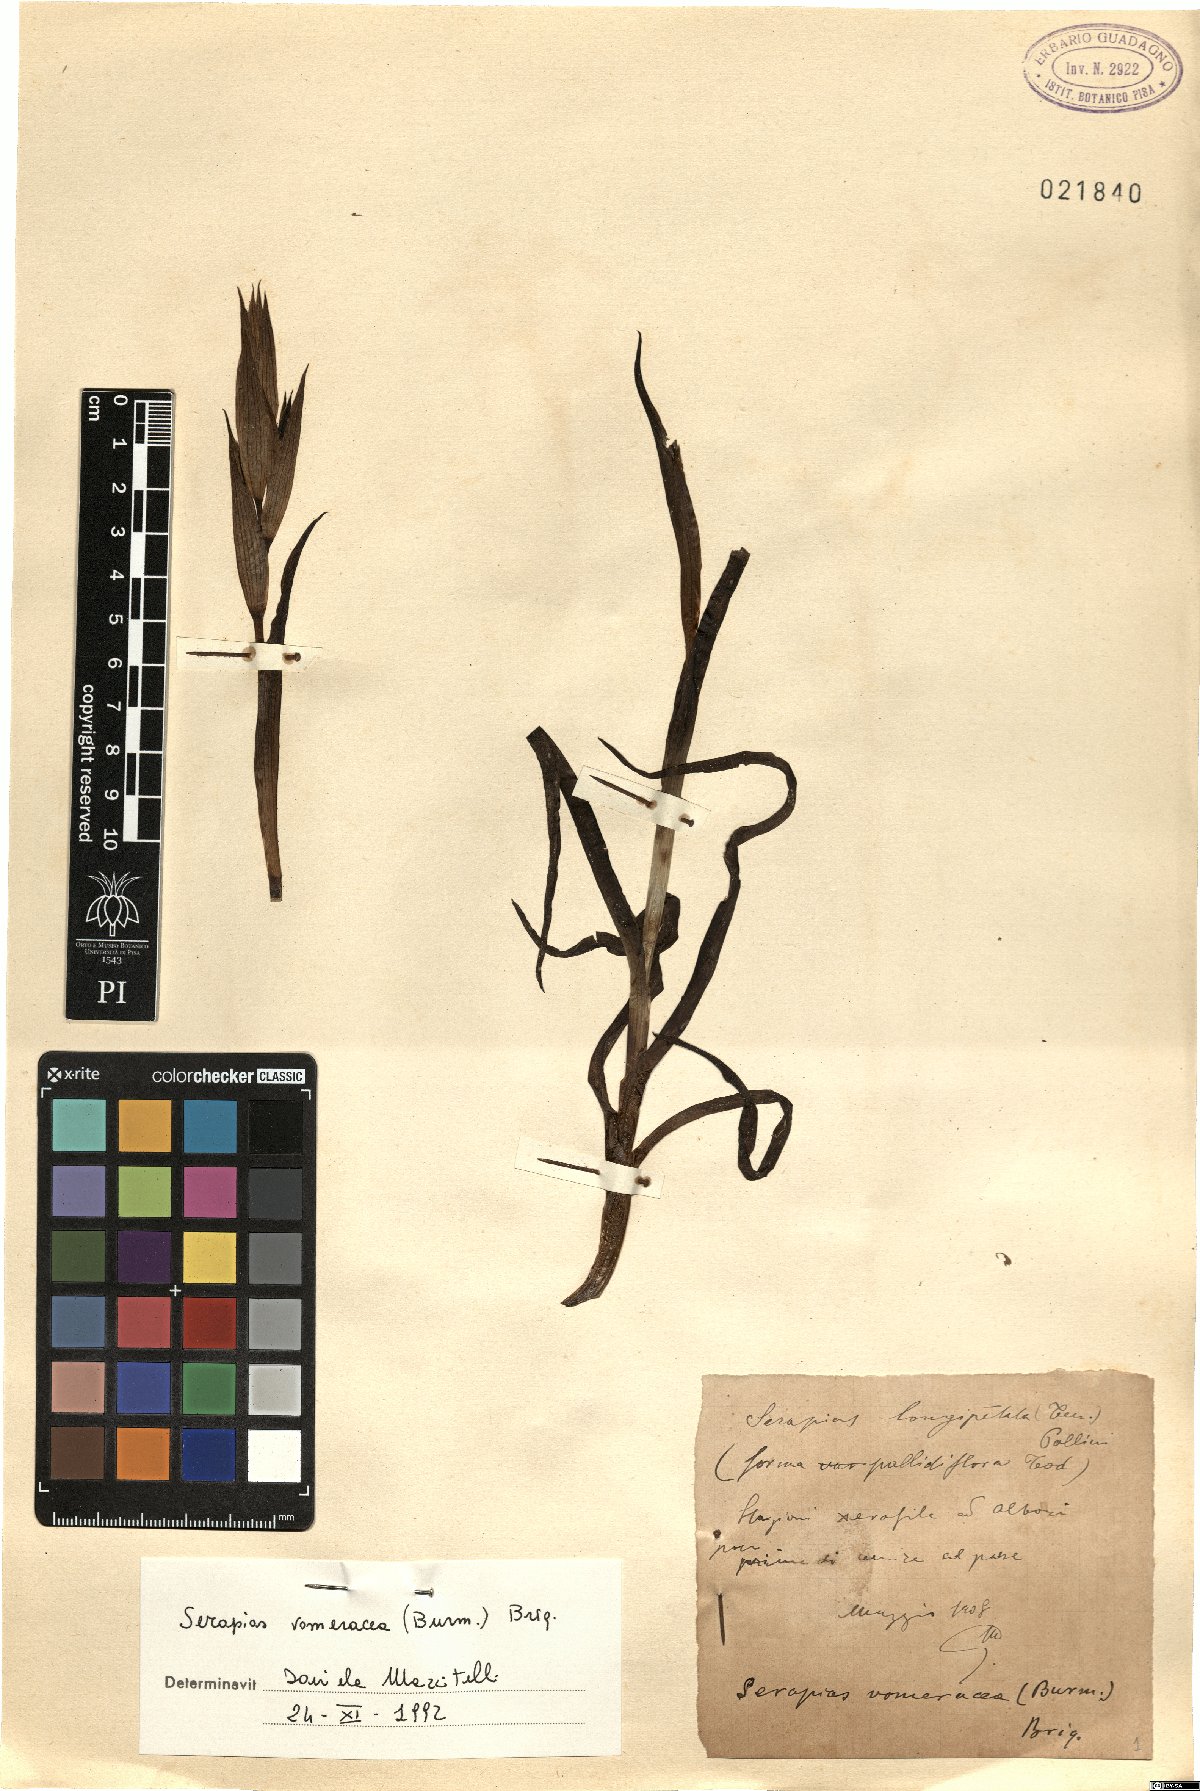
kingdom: Plantae
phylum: Tracheophyta
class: Liliopsida
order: Asparagales
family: Orchidaceae
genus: Serapias
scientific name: Serapias vomeracea
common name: Long-lipped tongue-orchid
